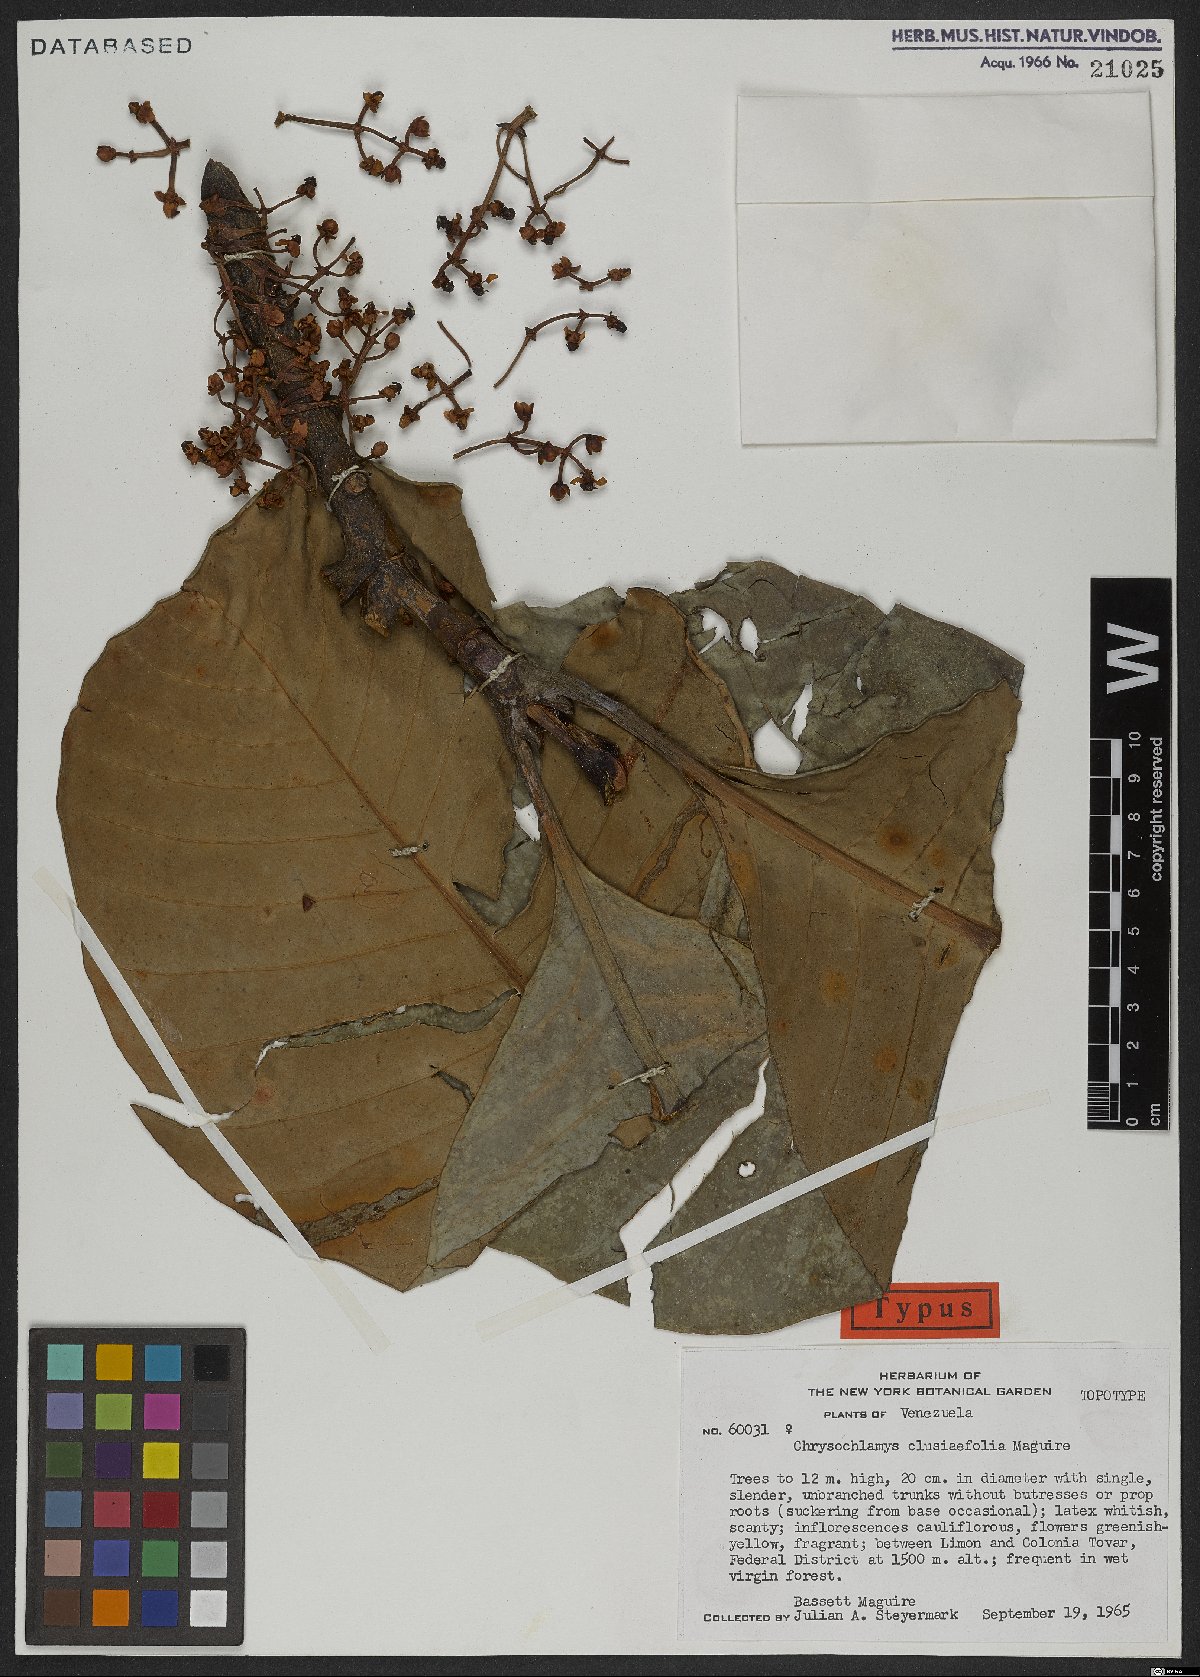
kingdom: Plantae
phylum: Tracheophyta
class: Magnoliopsida
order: Malpighiales
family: Clusiaceae
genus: Dystovomita
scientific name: Dystovomita clusiifolia
